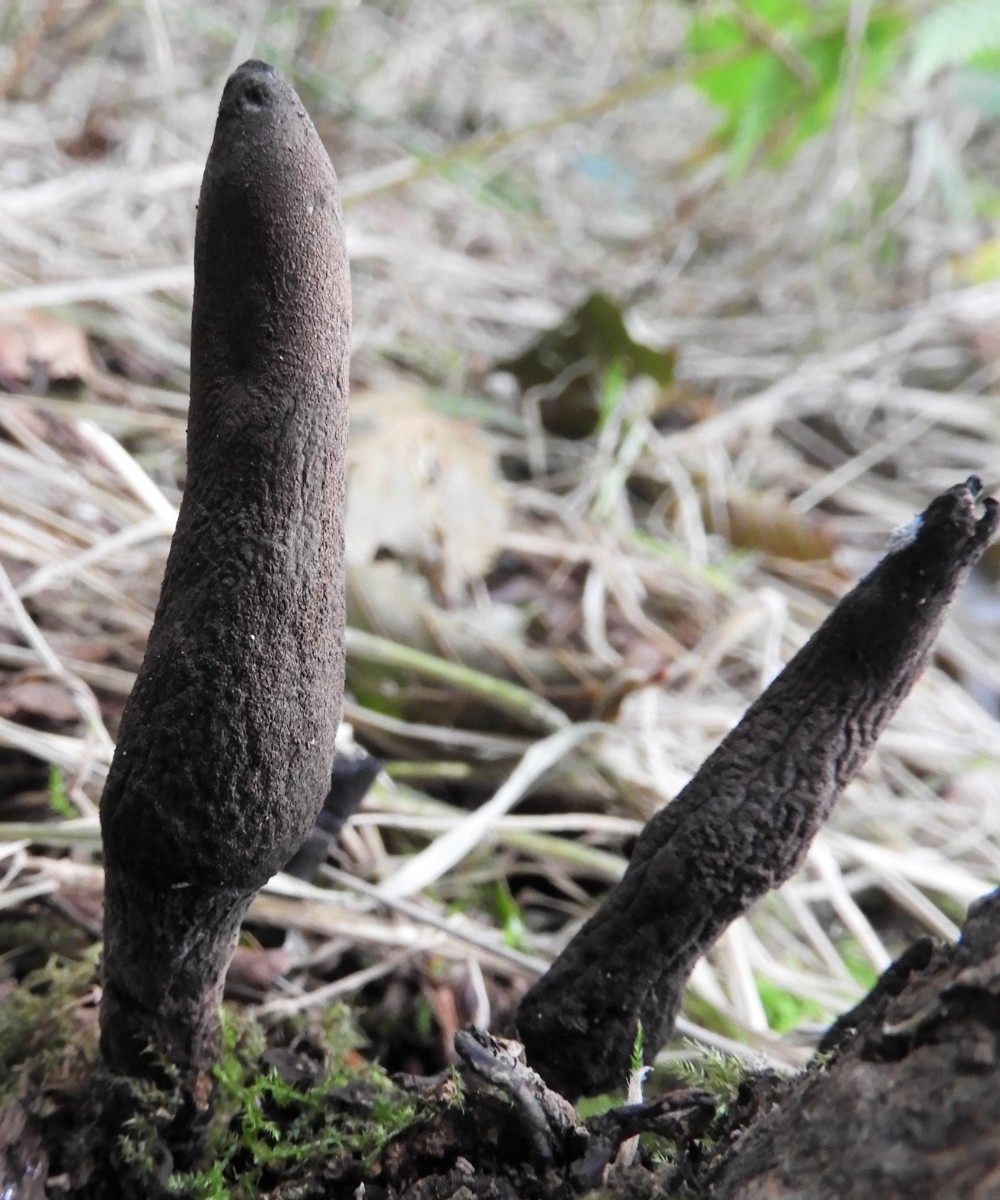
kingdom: Fungi
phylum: Ascomycota
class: Sordariomycetes
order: Xylariales
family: Xylariaceae
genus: Xylaria
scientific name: Xylaria longipes
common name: slank stødsvamp
